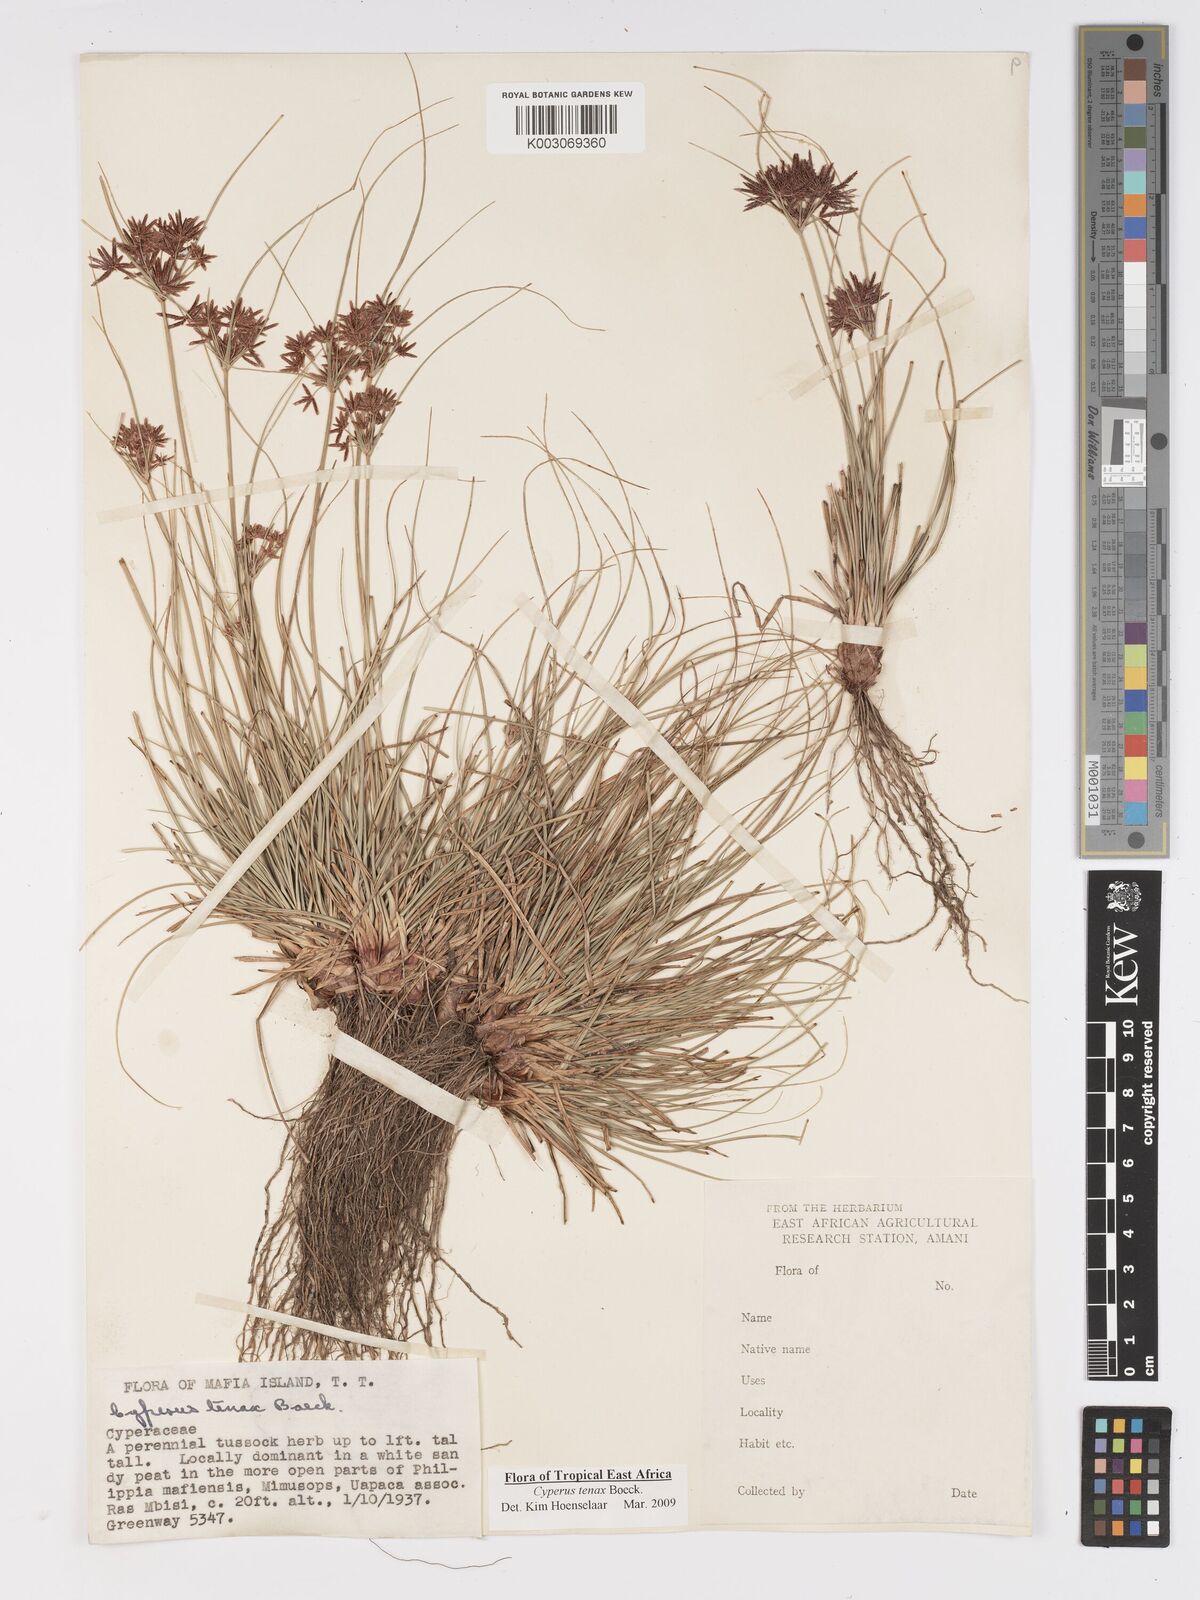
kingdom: Plantae
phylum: Tracheophyta
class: Liliopsida
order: Poales
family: Cyperaceae
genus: Cyperus
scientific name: Cyperus tenax
